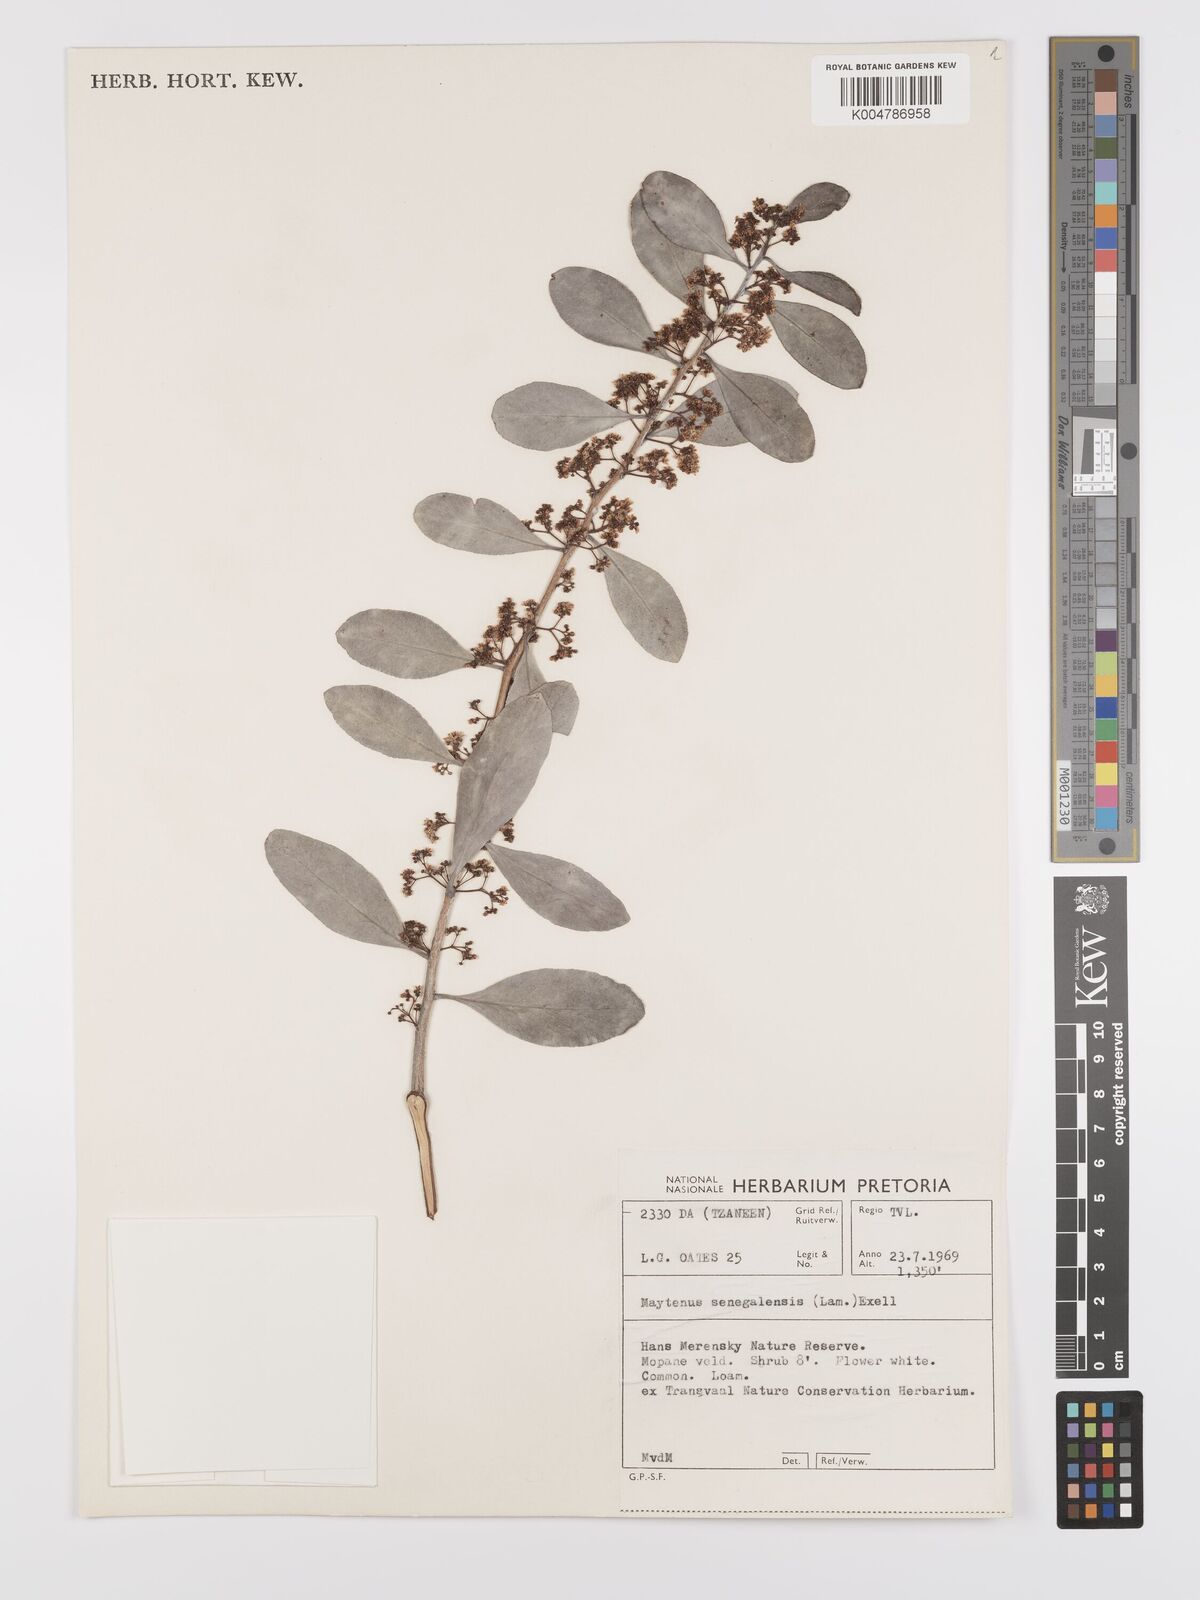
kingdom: Plantae
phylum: Tracheophyta
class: Magnoliopsida
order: Celastrales
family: Celastraceae
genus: Gymnosporia
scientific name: Gymnosporia senegalensis
